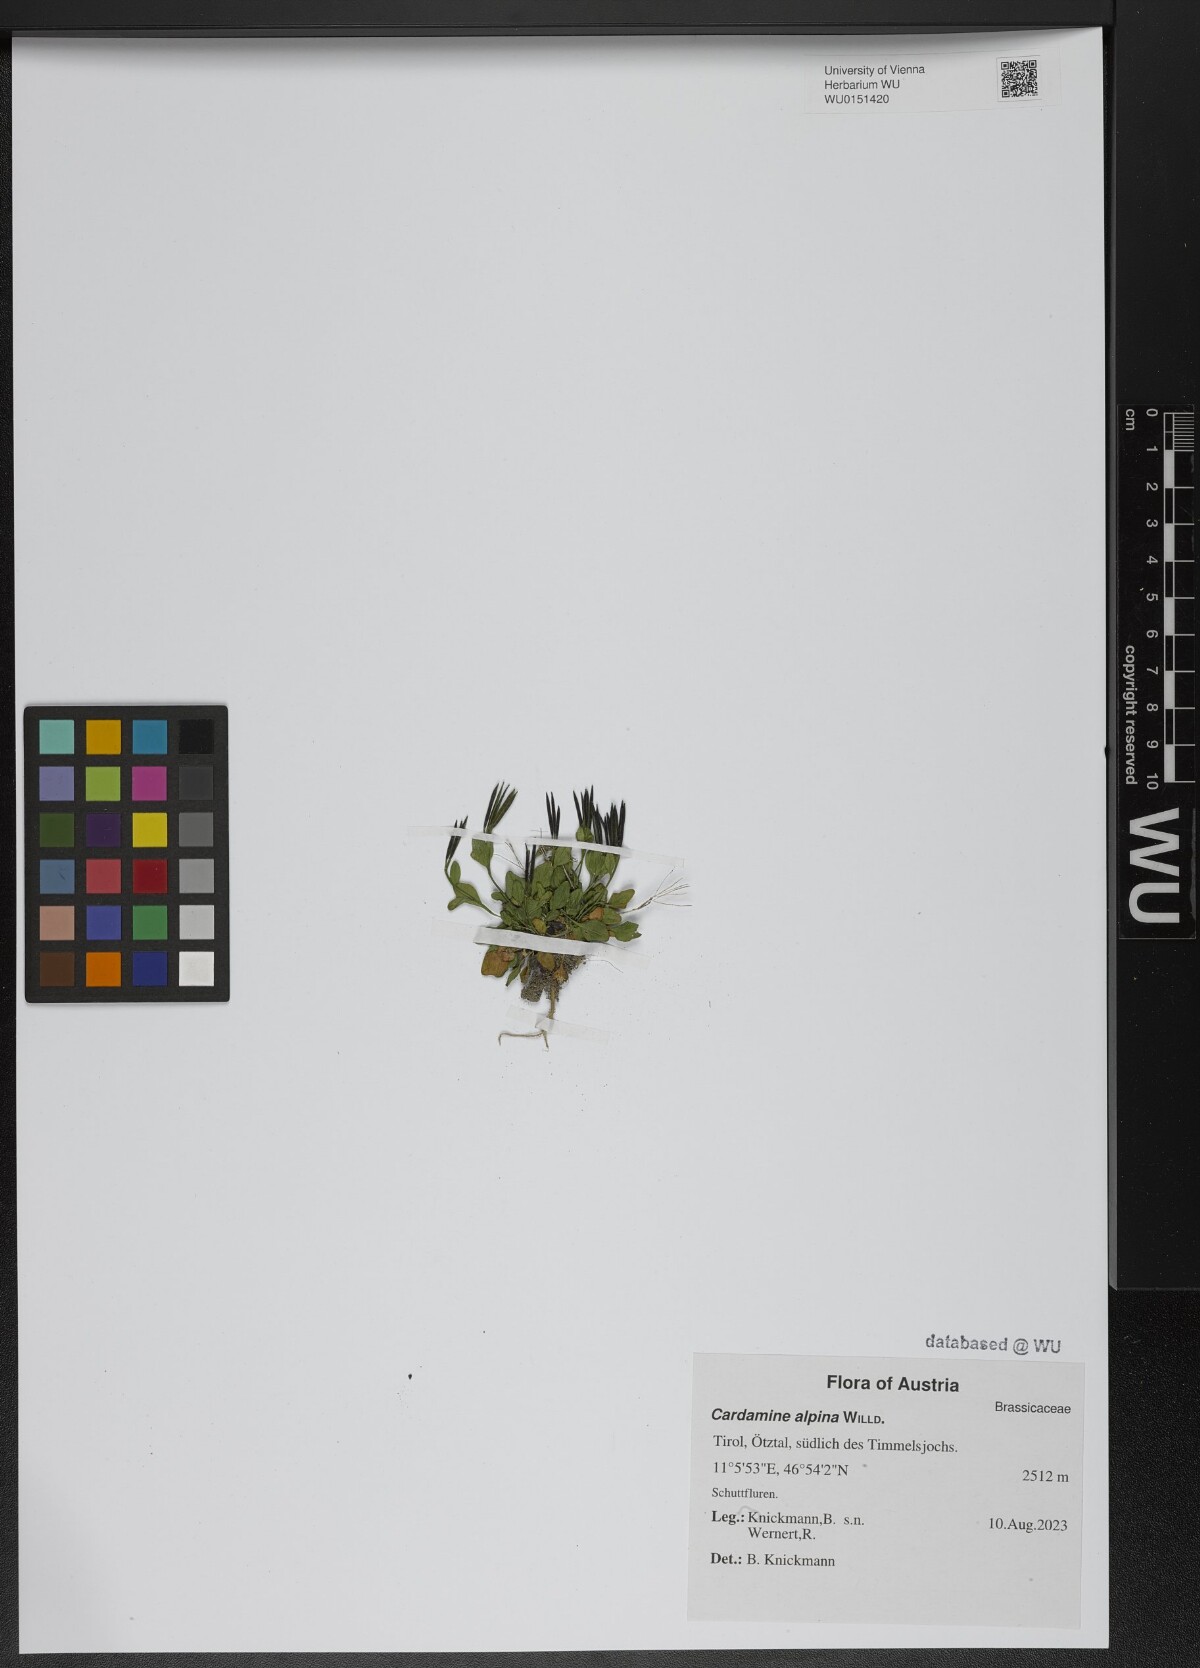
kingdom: Plantae
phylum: Tracheophyta
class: Magnoliopsida
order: Brassicales
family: Brassicaceae
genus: Cardamine
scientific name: Cardamine bellidifolia
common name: Alpine bittercress
